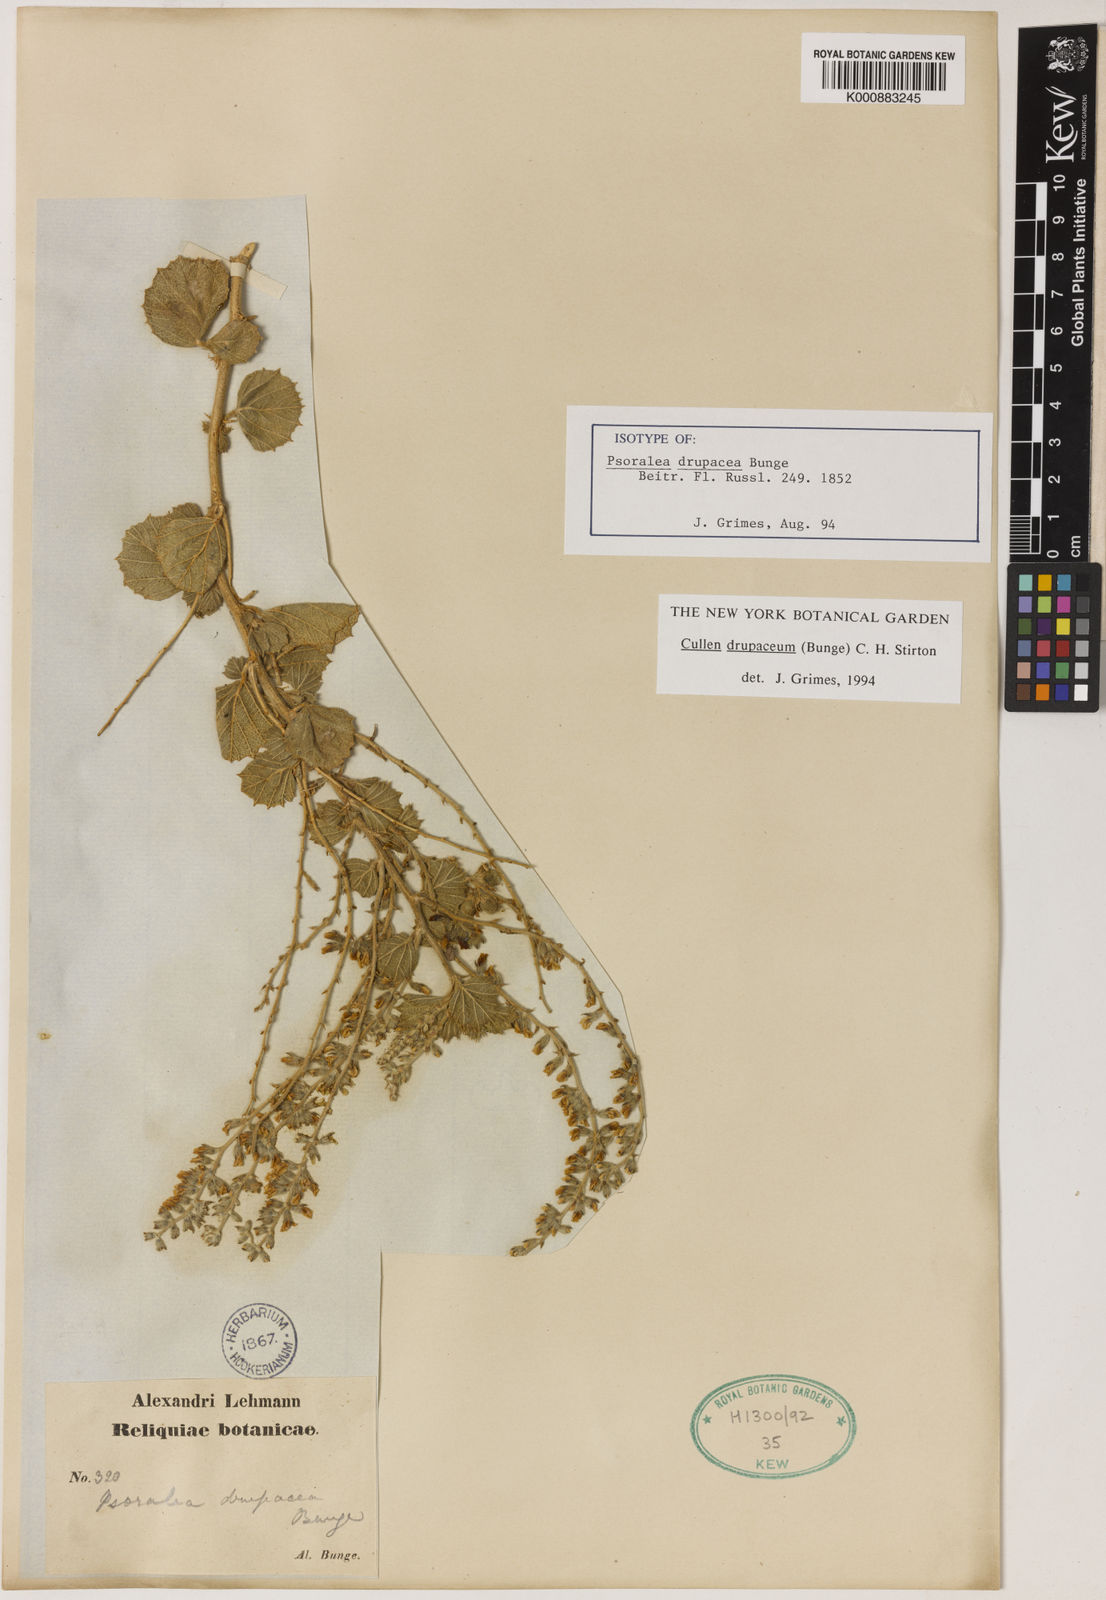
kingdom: Plantae
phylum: Tracheophyta
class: Magnoliopsida
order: Fabales
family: Fabaceae
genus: Cullen
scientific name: Cullen drupaceum
